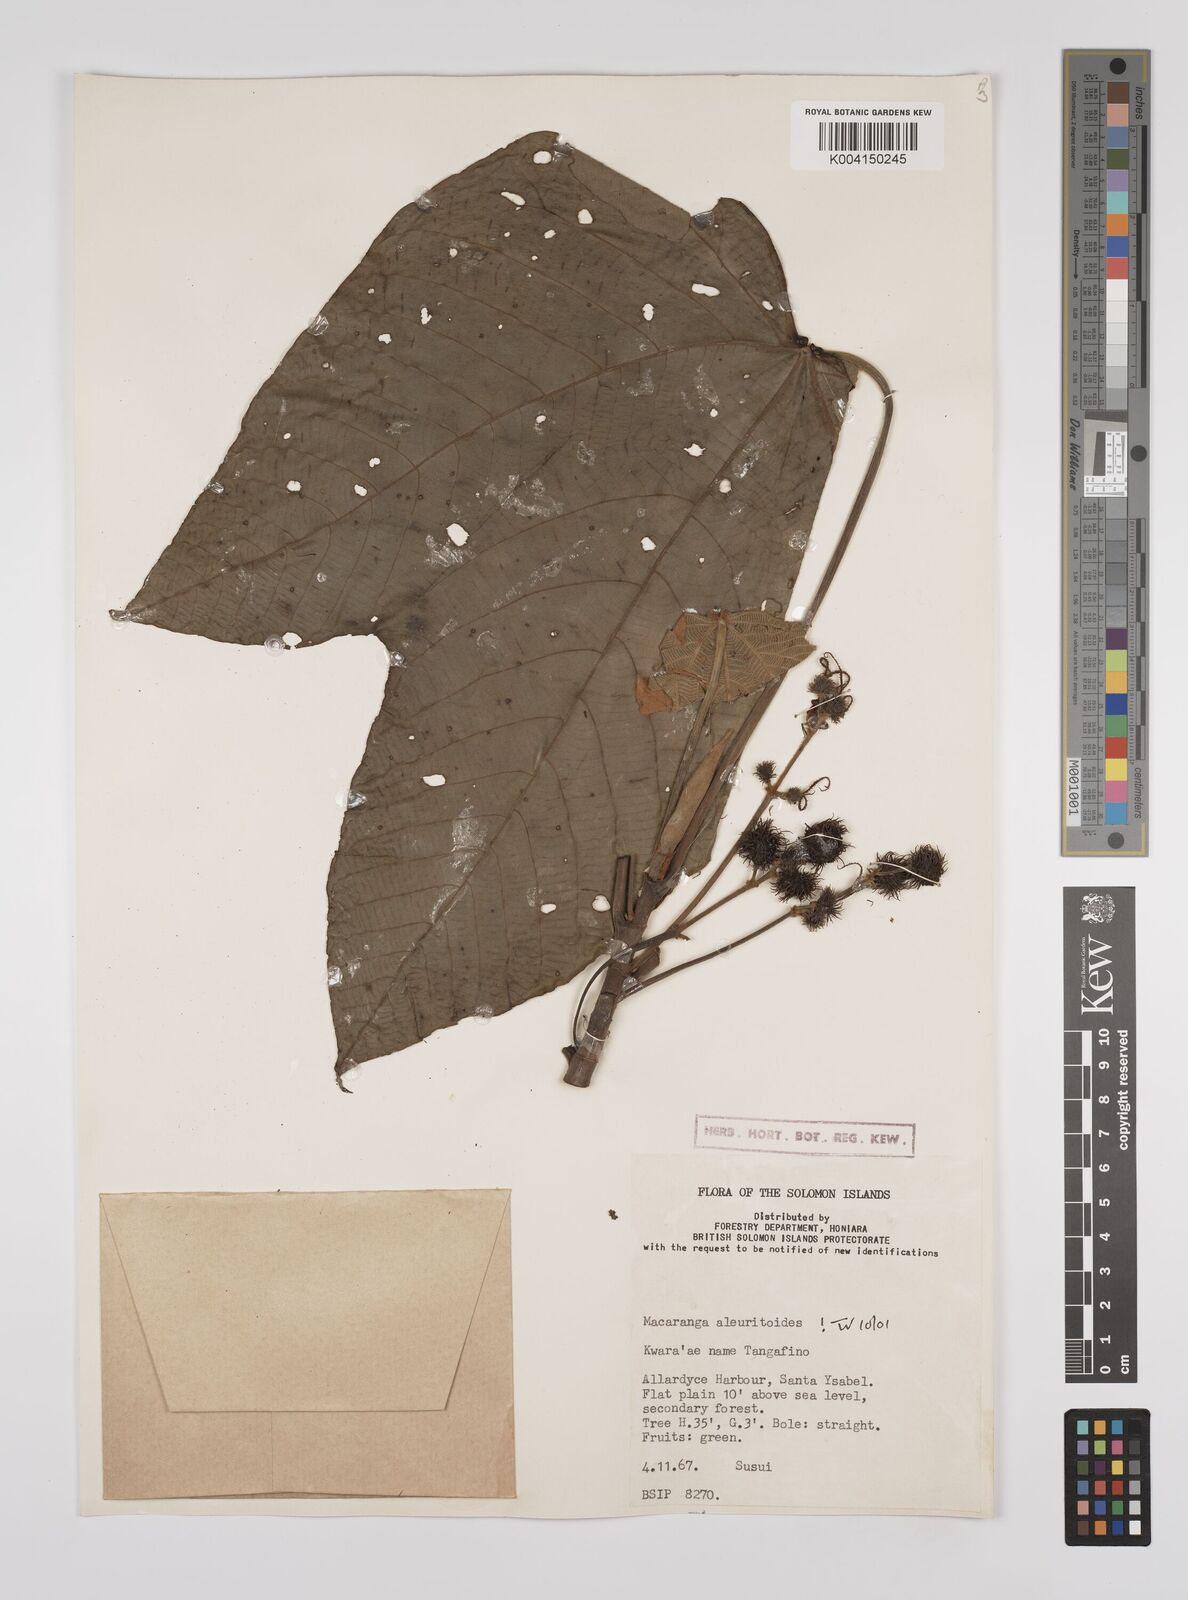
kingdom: Plantae
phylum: Tracheophyta
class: Magnoliopsida
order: Malpighiales
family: Euphorbiaceae
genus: Macaranga
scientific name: Macaranga aleuritoides
